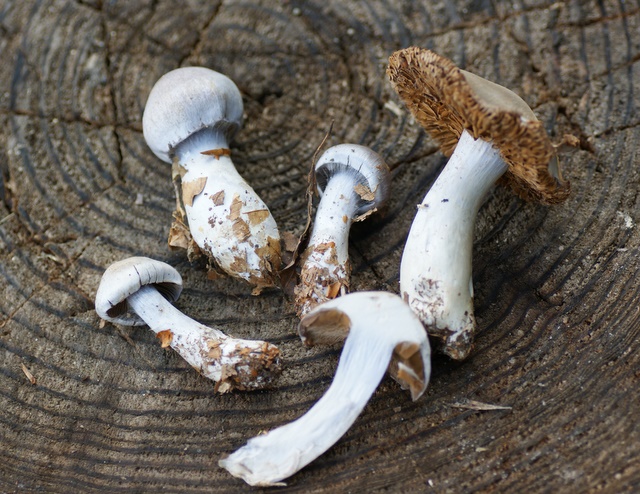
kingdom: Fungi
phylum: Basidiomycota
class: Agaricomycetes
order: Agaricales
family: Cortinariaceae
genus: Cortinarius
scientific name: Cortinarius alboviolaceus
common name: lysviolet slørhat
